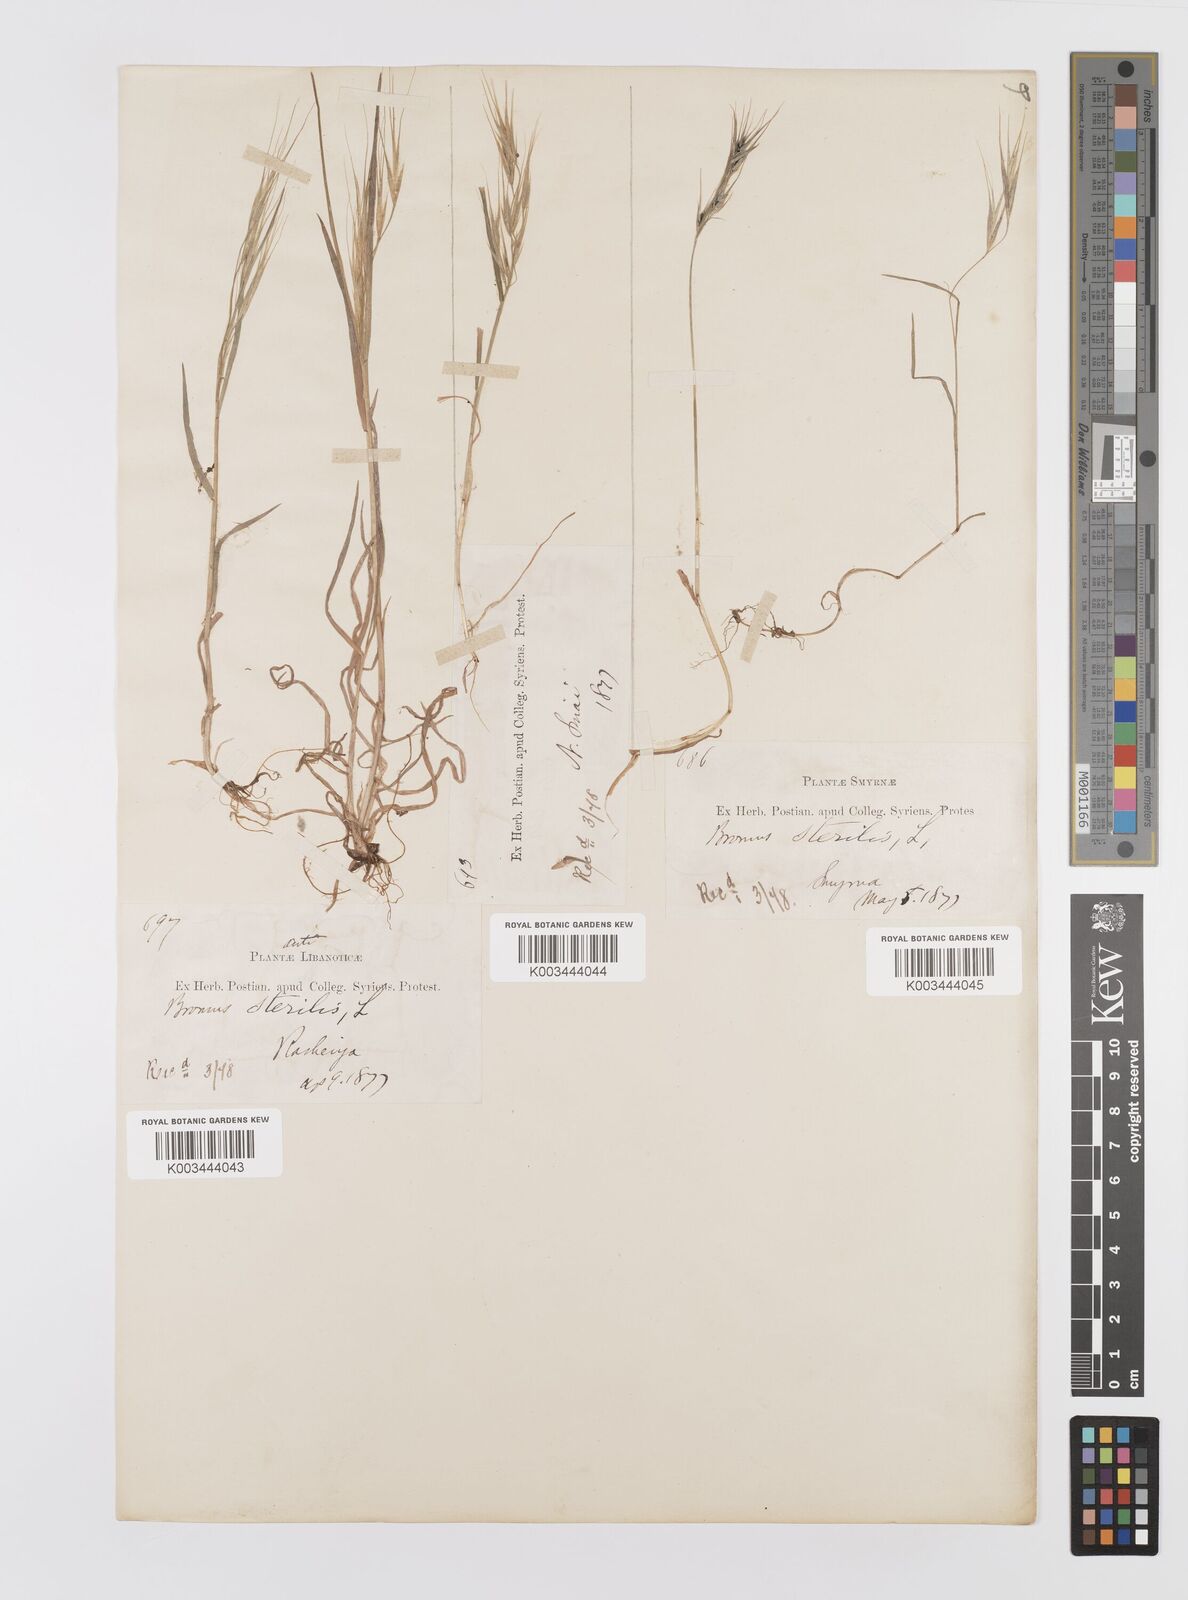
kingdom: Plantae
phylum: Tracheophyta
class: Liliopsida
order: Poales
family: Poaceae
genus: Bromus
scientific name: Bromus sterilis
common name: Poverty brome
